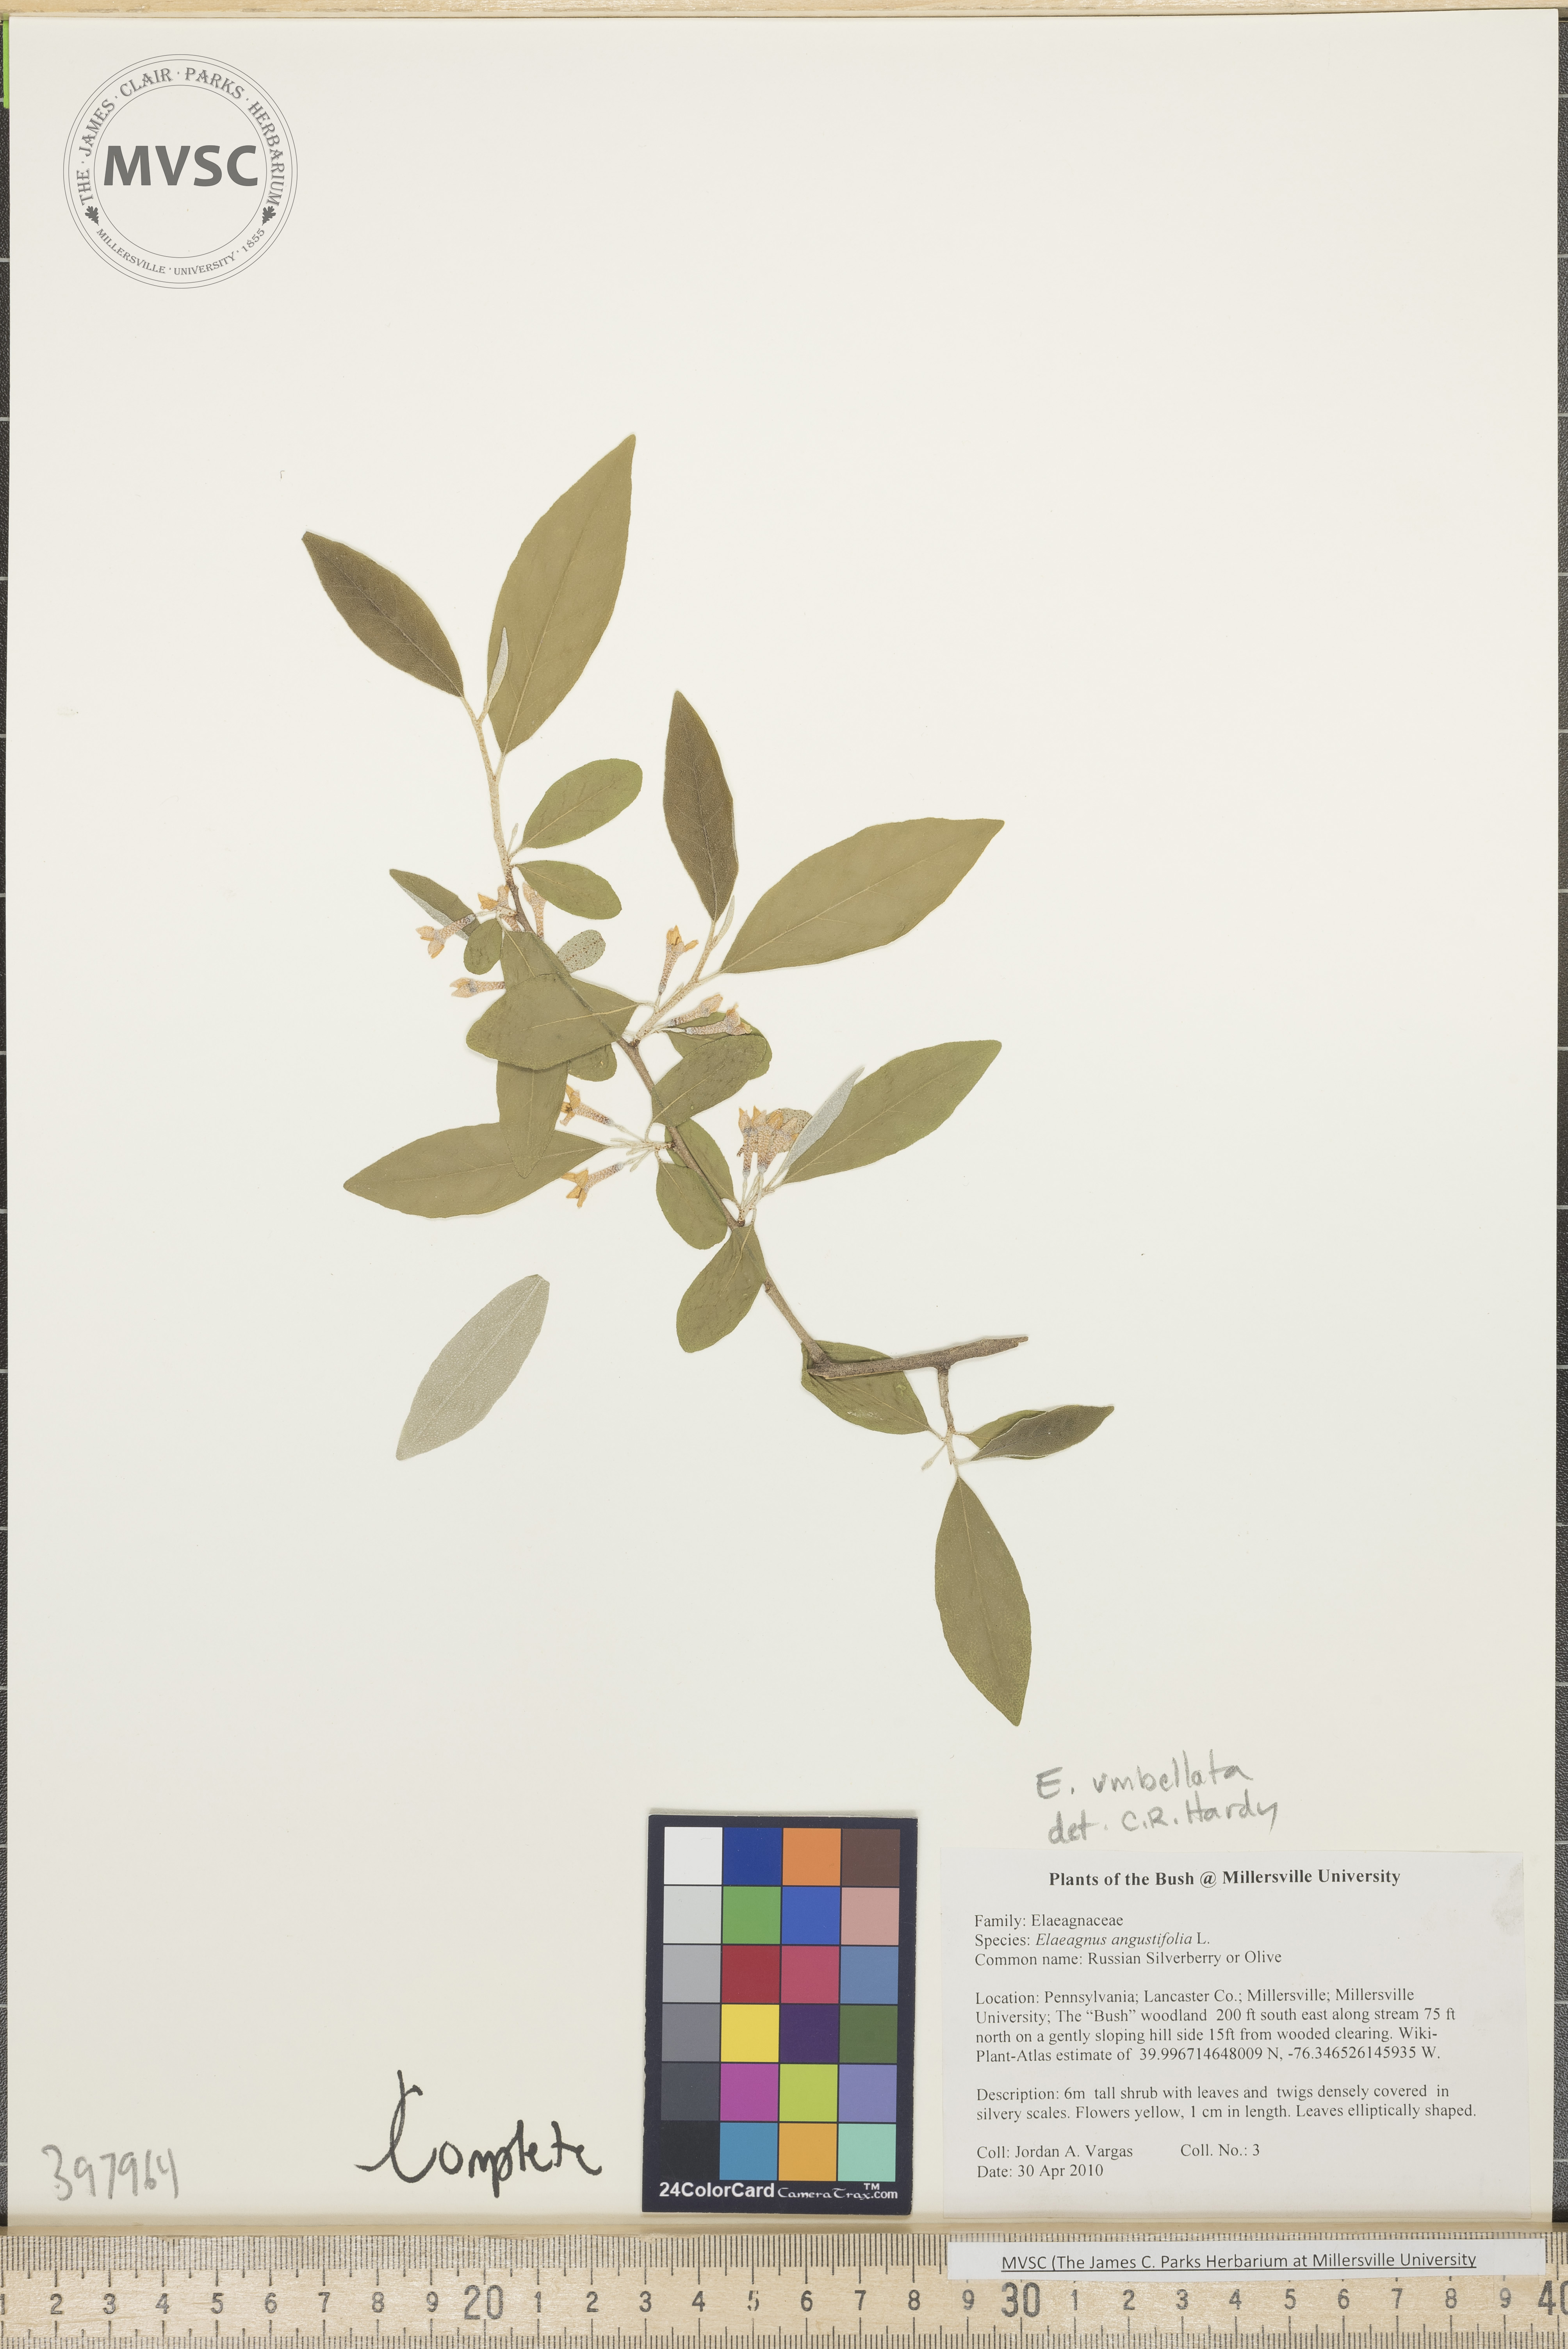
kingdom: Plantae
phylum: Tracheophyta
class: Magnoliopsida
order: Rosales
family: Elaeagnaceae
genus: Elaeagnus
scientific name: Elaeagnus umbellata
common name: Autumn-olive
